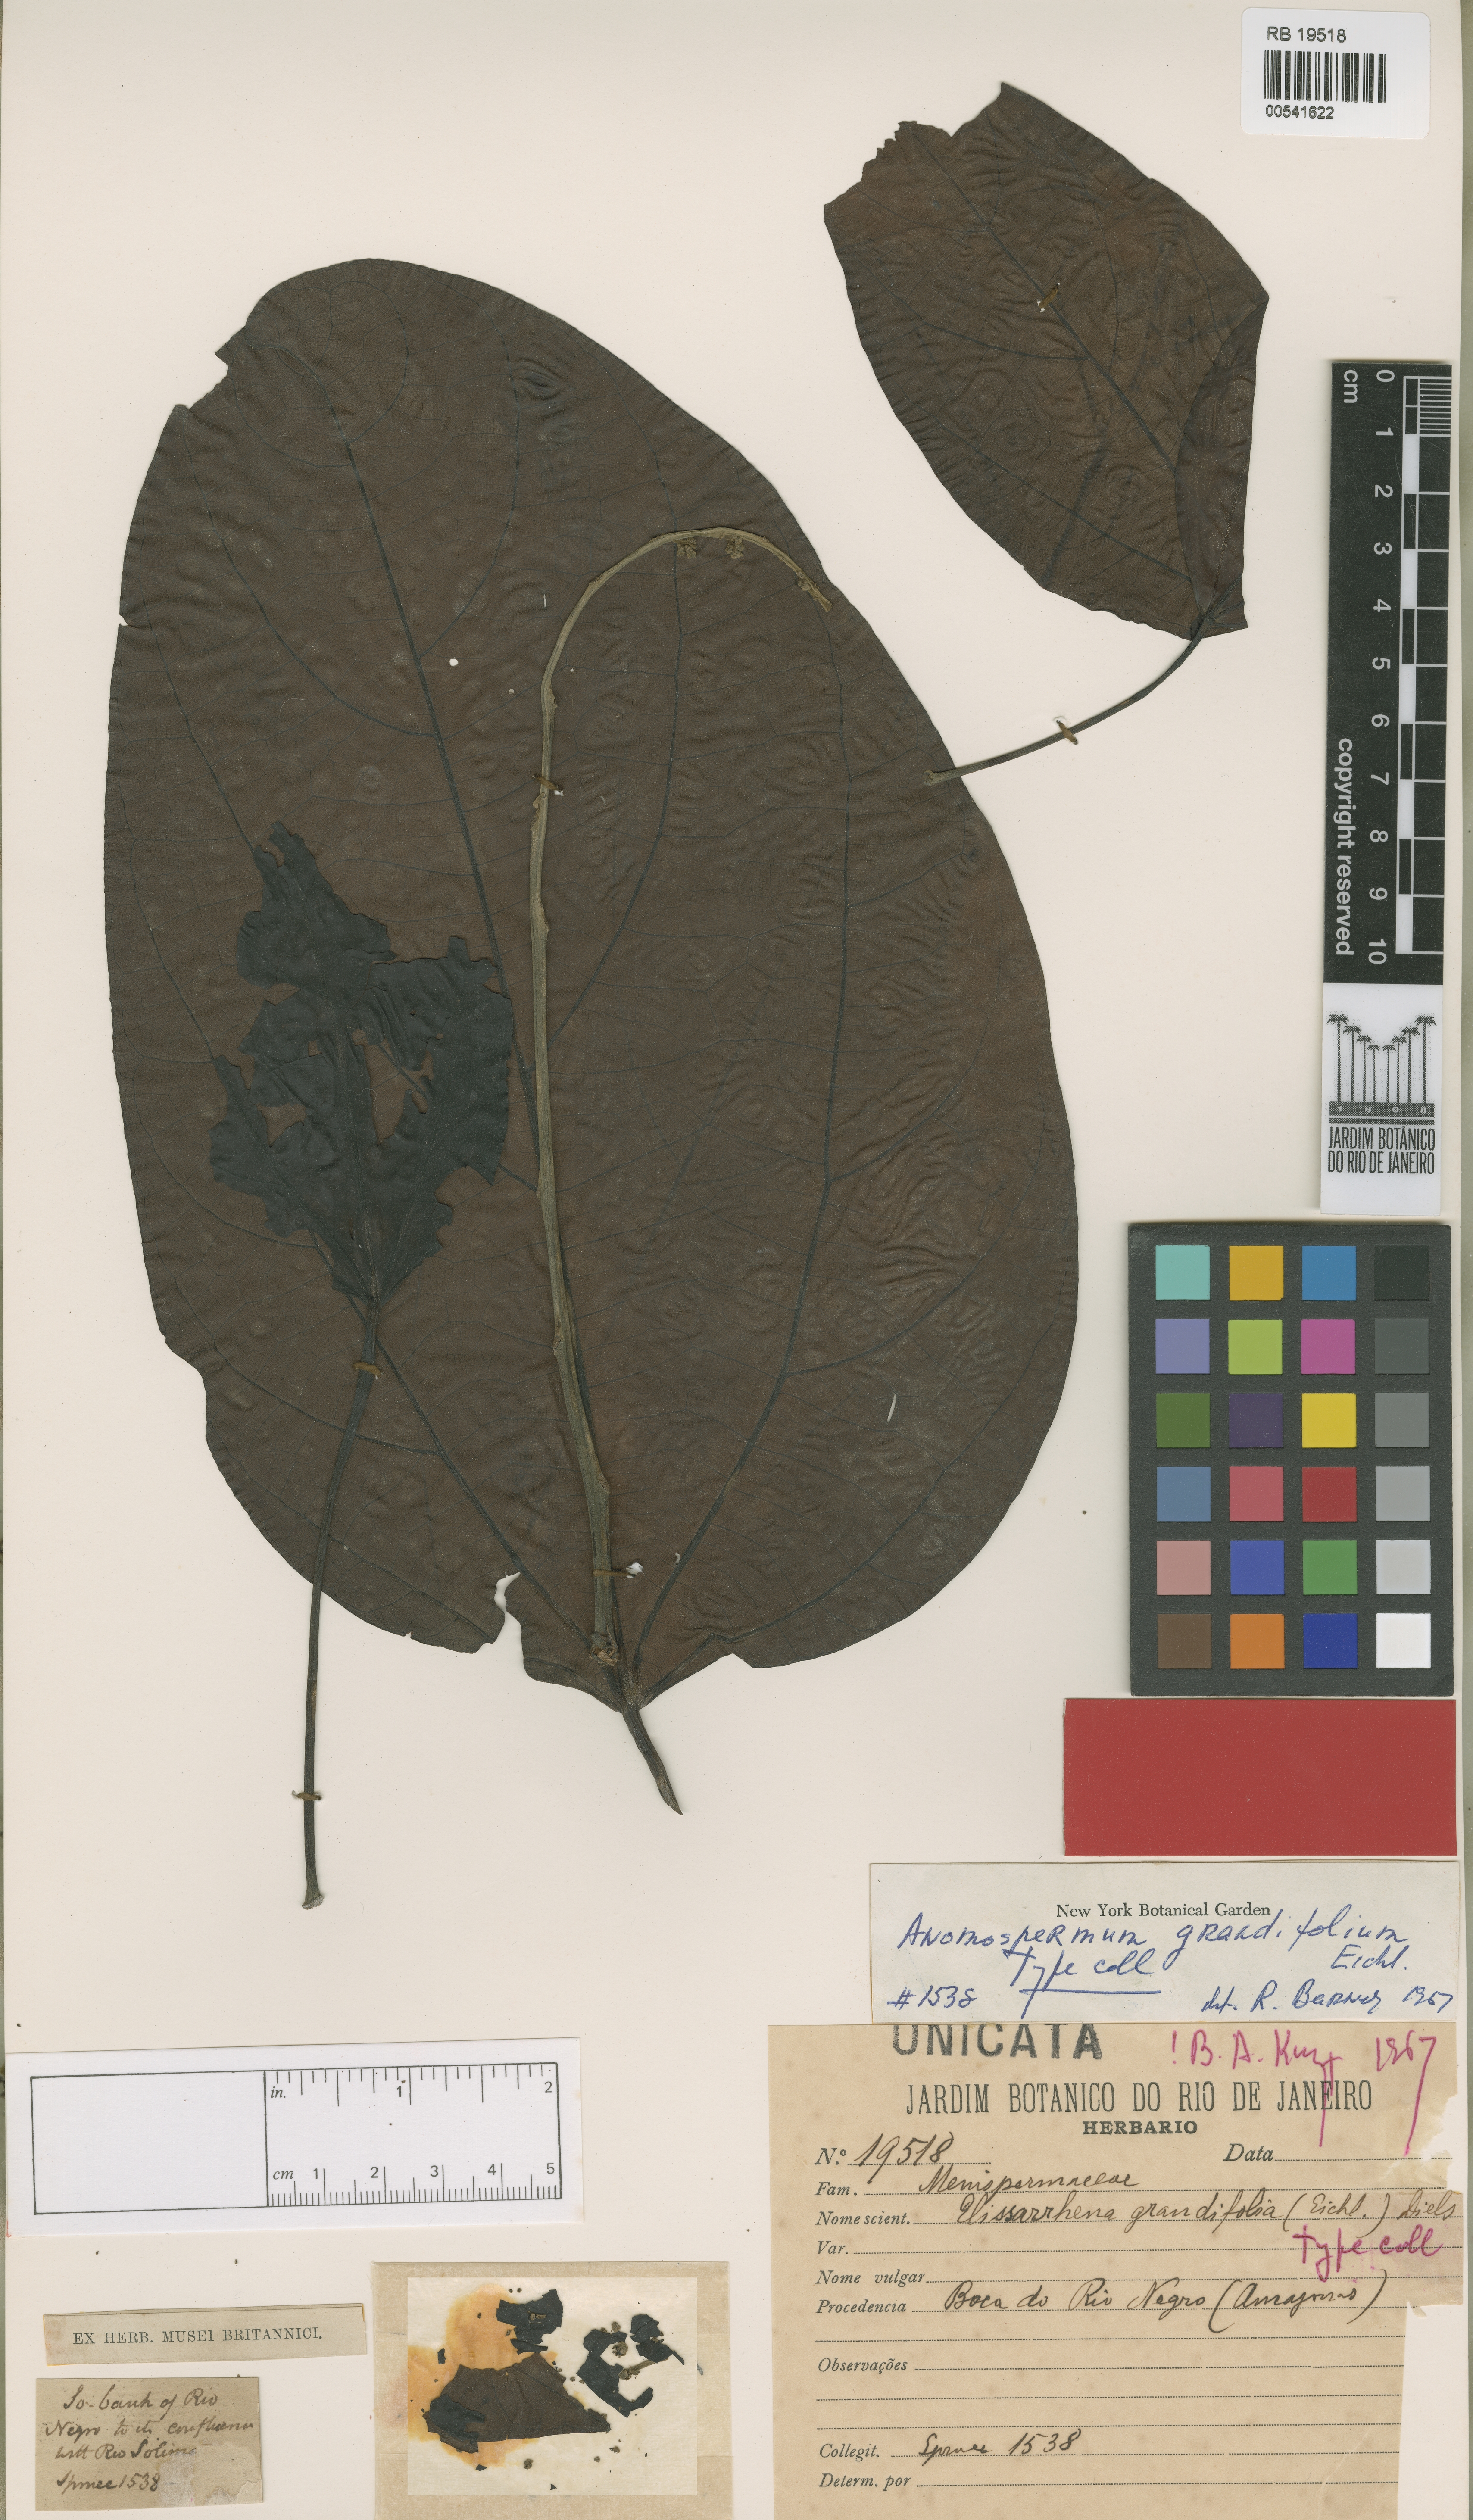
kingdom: Plantae
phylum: Tracheophyta
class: Magnoliopsida
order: Ranunculales
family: Menispermaceae
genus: Elissarrhena
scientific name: Elissarrhena longipes
